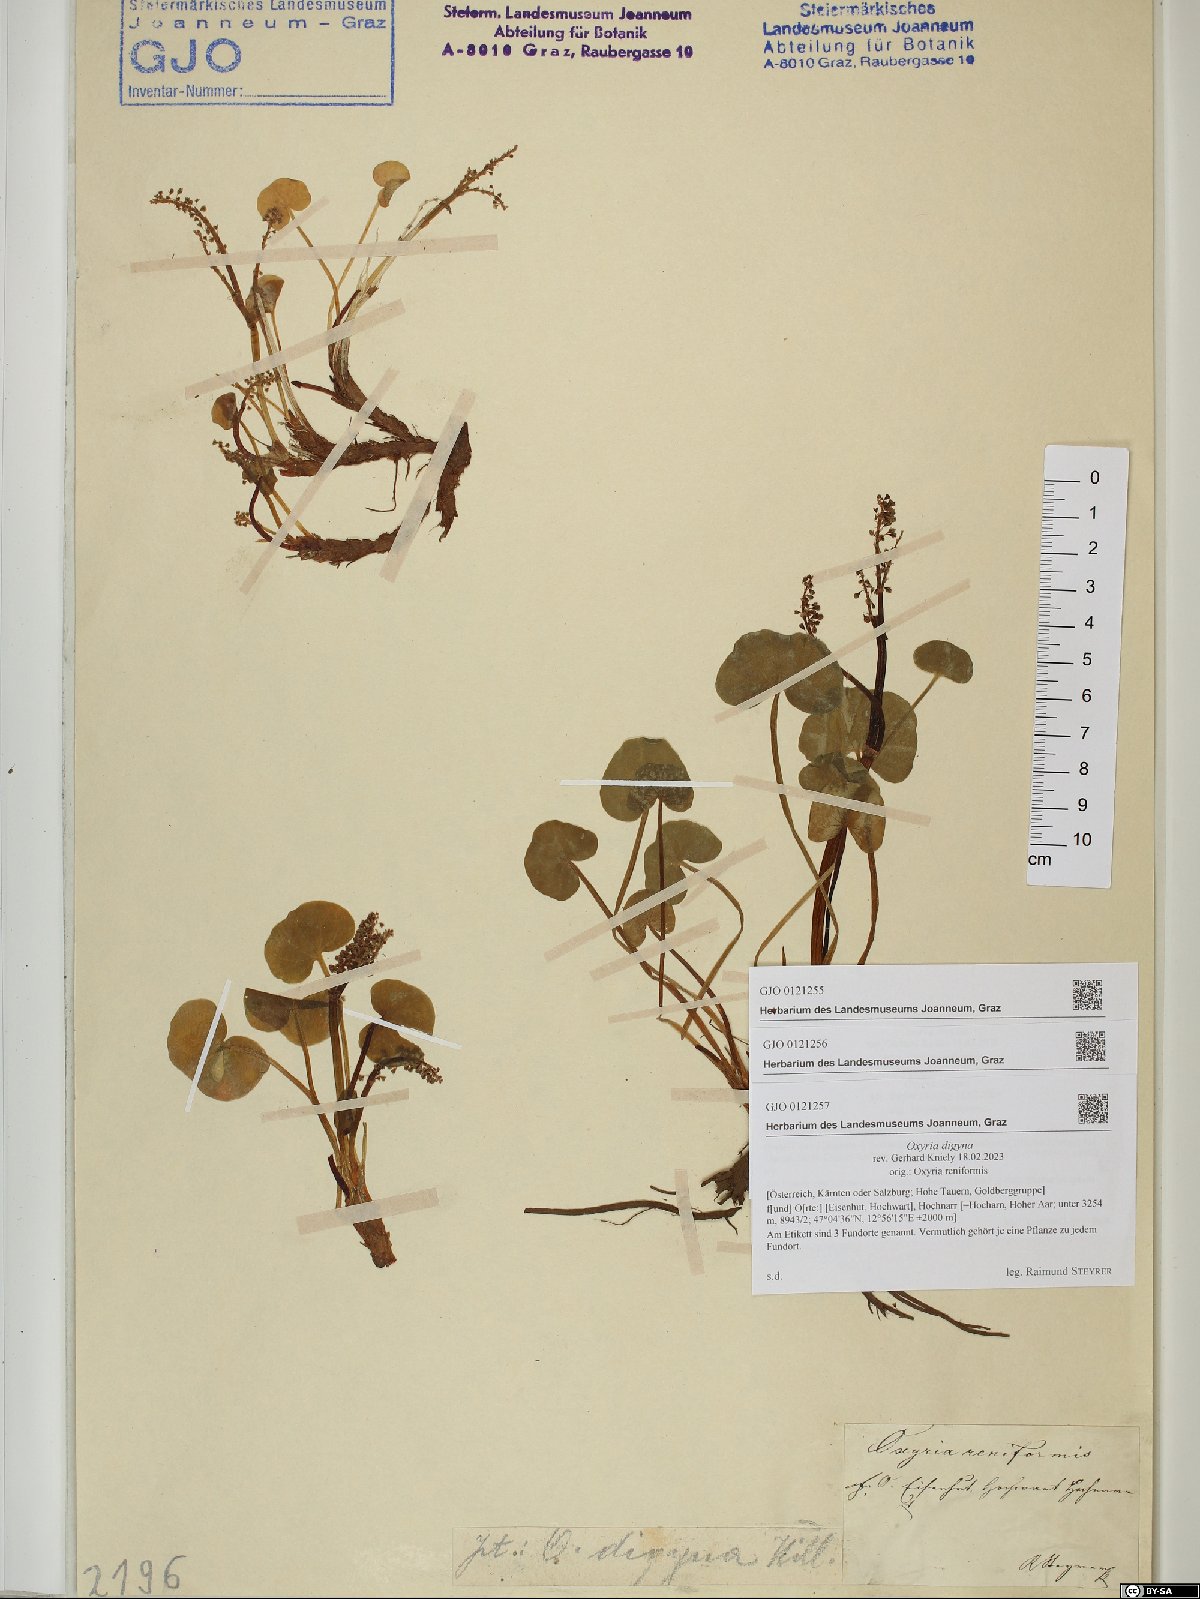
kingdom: Plantae
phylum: Tracheophyta
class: Magnoliopsida
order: Caryophyllales
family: Polygonaceae
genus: Oxyria
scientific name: Oxyria digyna
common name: Alpine mountain-sorrel
